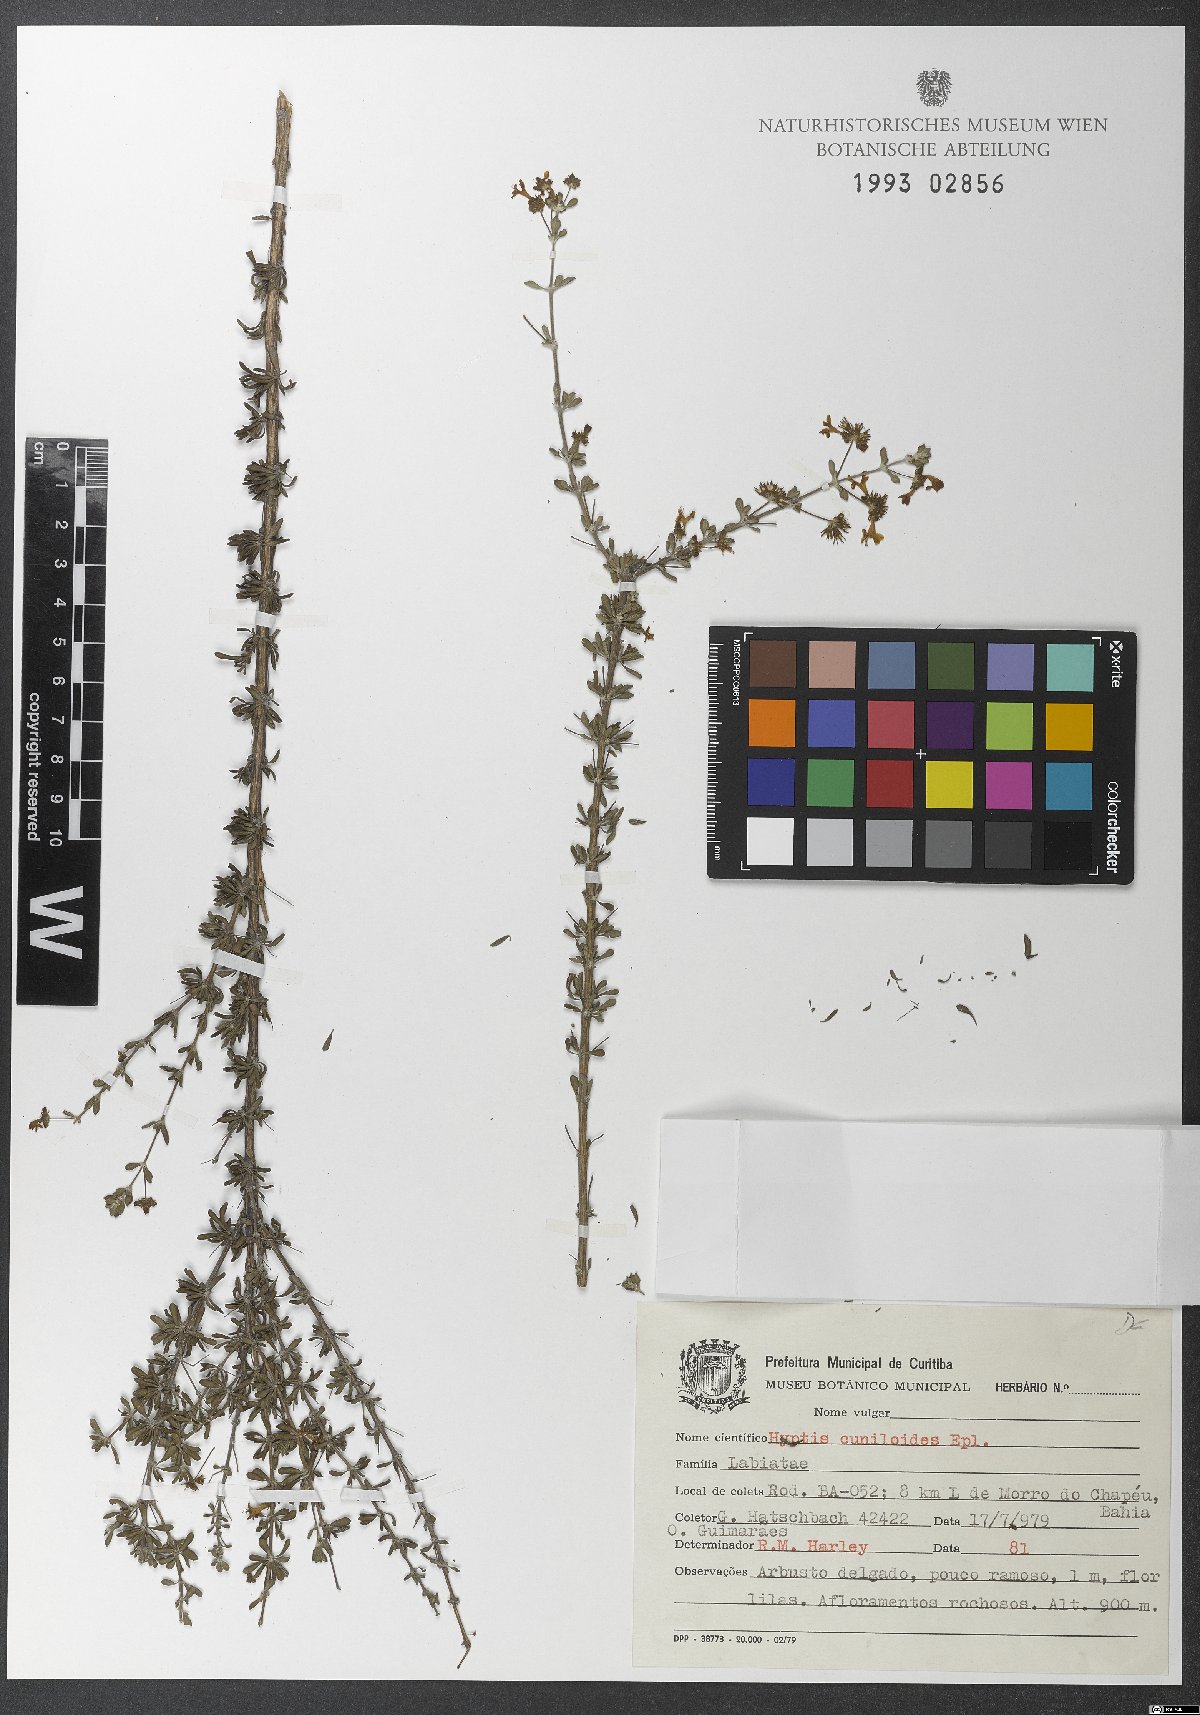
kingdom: Plantae
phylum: Tracheophyta
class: Magnoliopsida
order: Lamiales
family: Lamiaceae
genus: Eplingiella
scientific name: Eplingiella cuniloides
